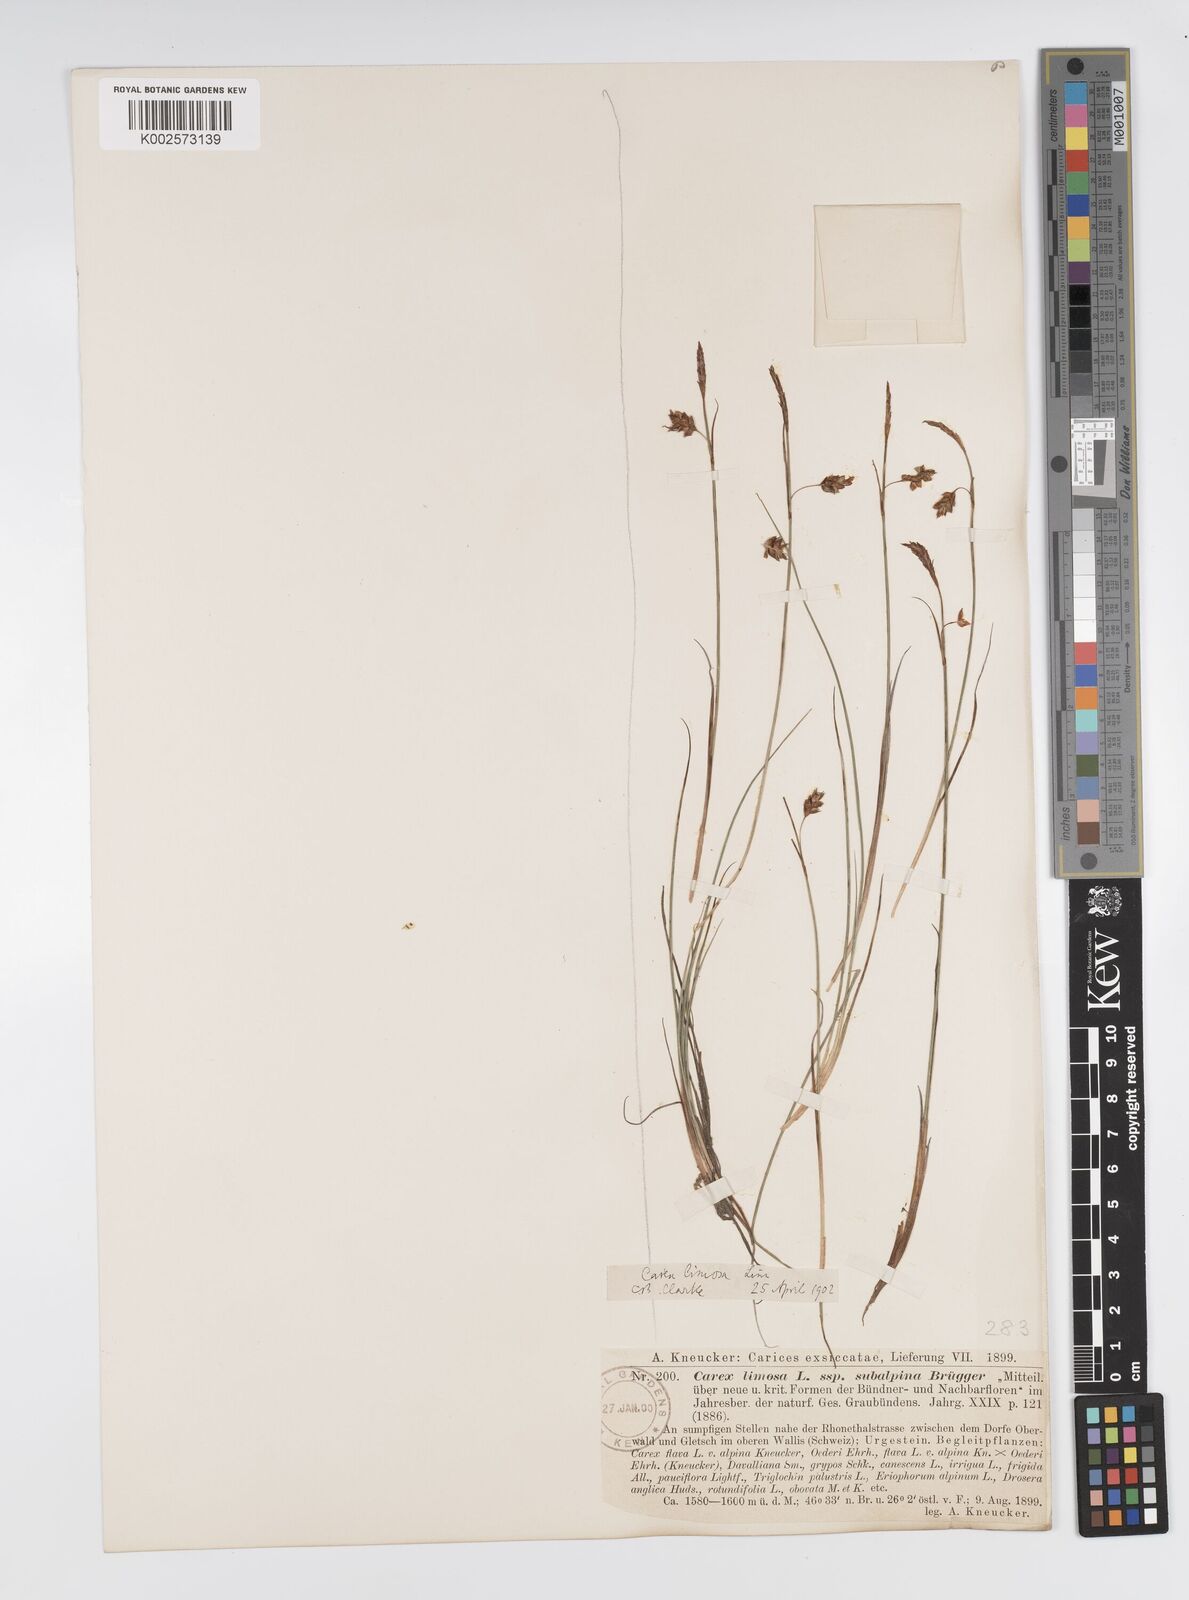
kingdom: Plantae
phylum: Tracheophyta
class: Liliopsida
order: Poales
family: Cyperaceae
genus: Carex
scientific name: Carex limosa
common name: Bog sedge
